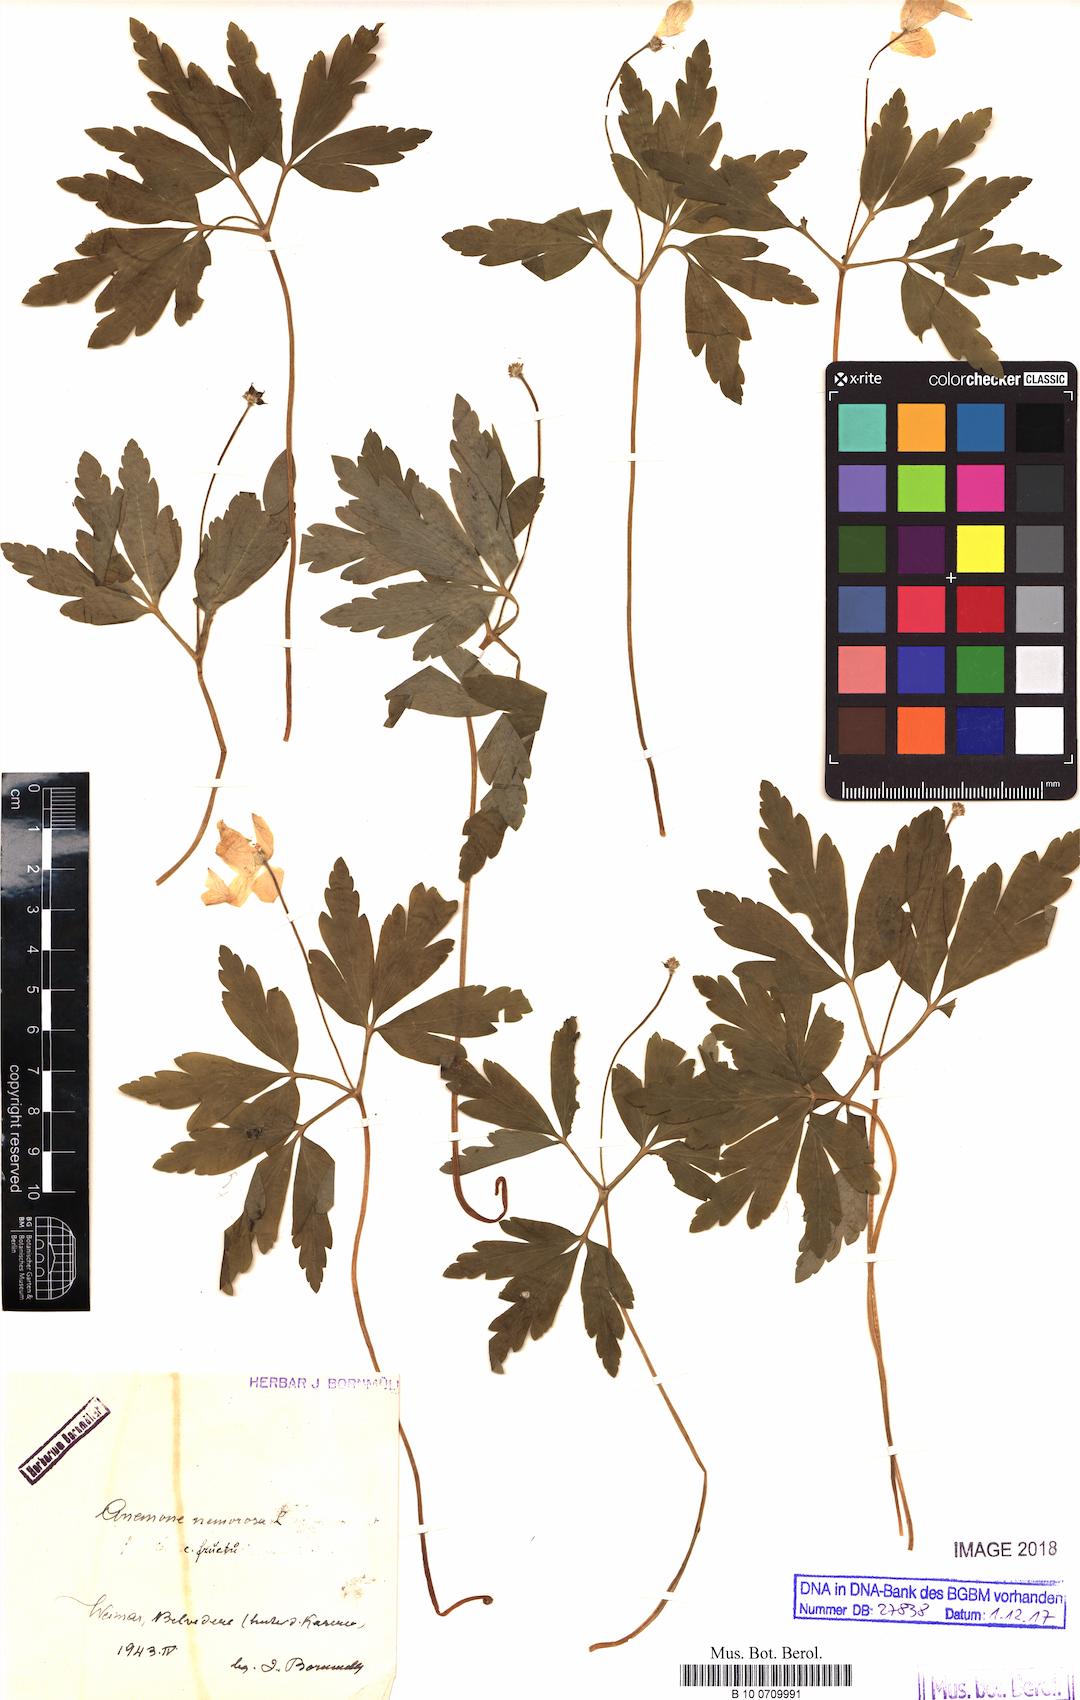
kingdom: Plantae
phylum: Tracheophyta
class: Magnoliopsida
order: Ranunculales
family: Ranunculaceae
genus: Anemone
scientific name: Anemone nemorosa
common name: Wood anemone
